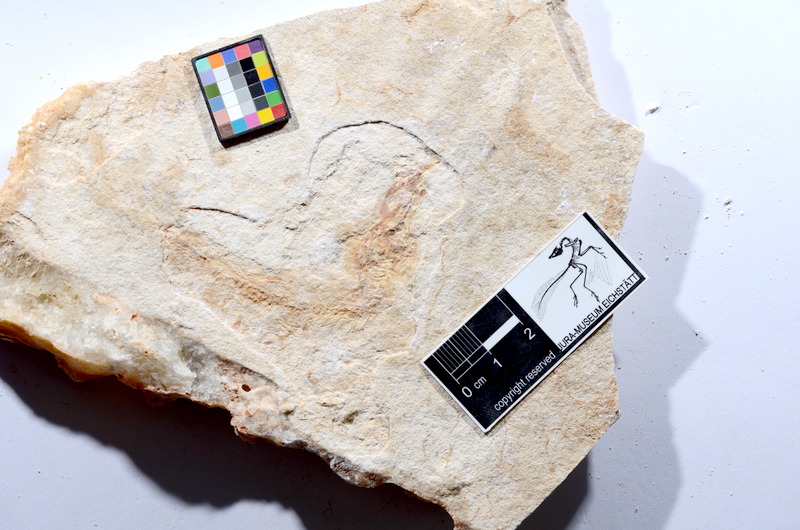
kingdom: Animalia
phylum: Chordata
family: Ascalaboidae
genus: Tharsis
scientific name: Tharsis dubius
